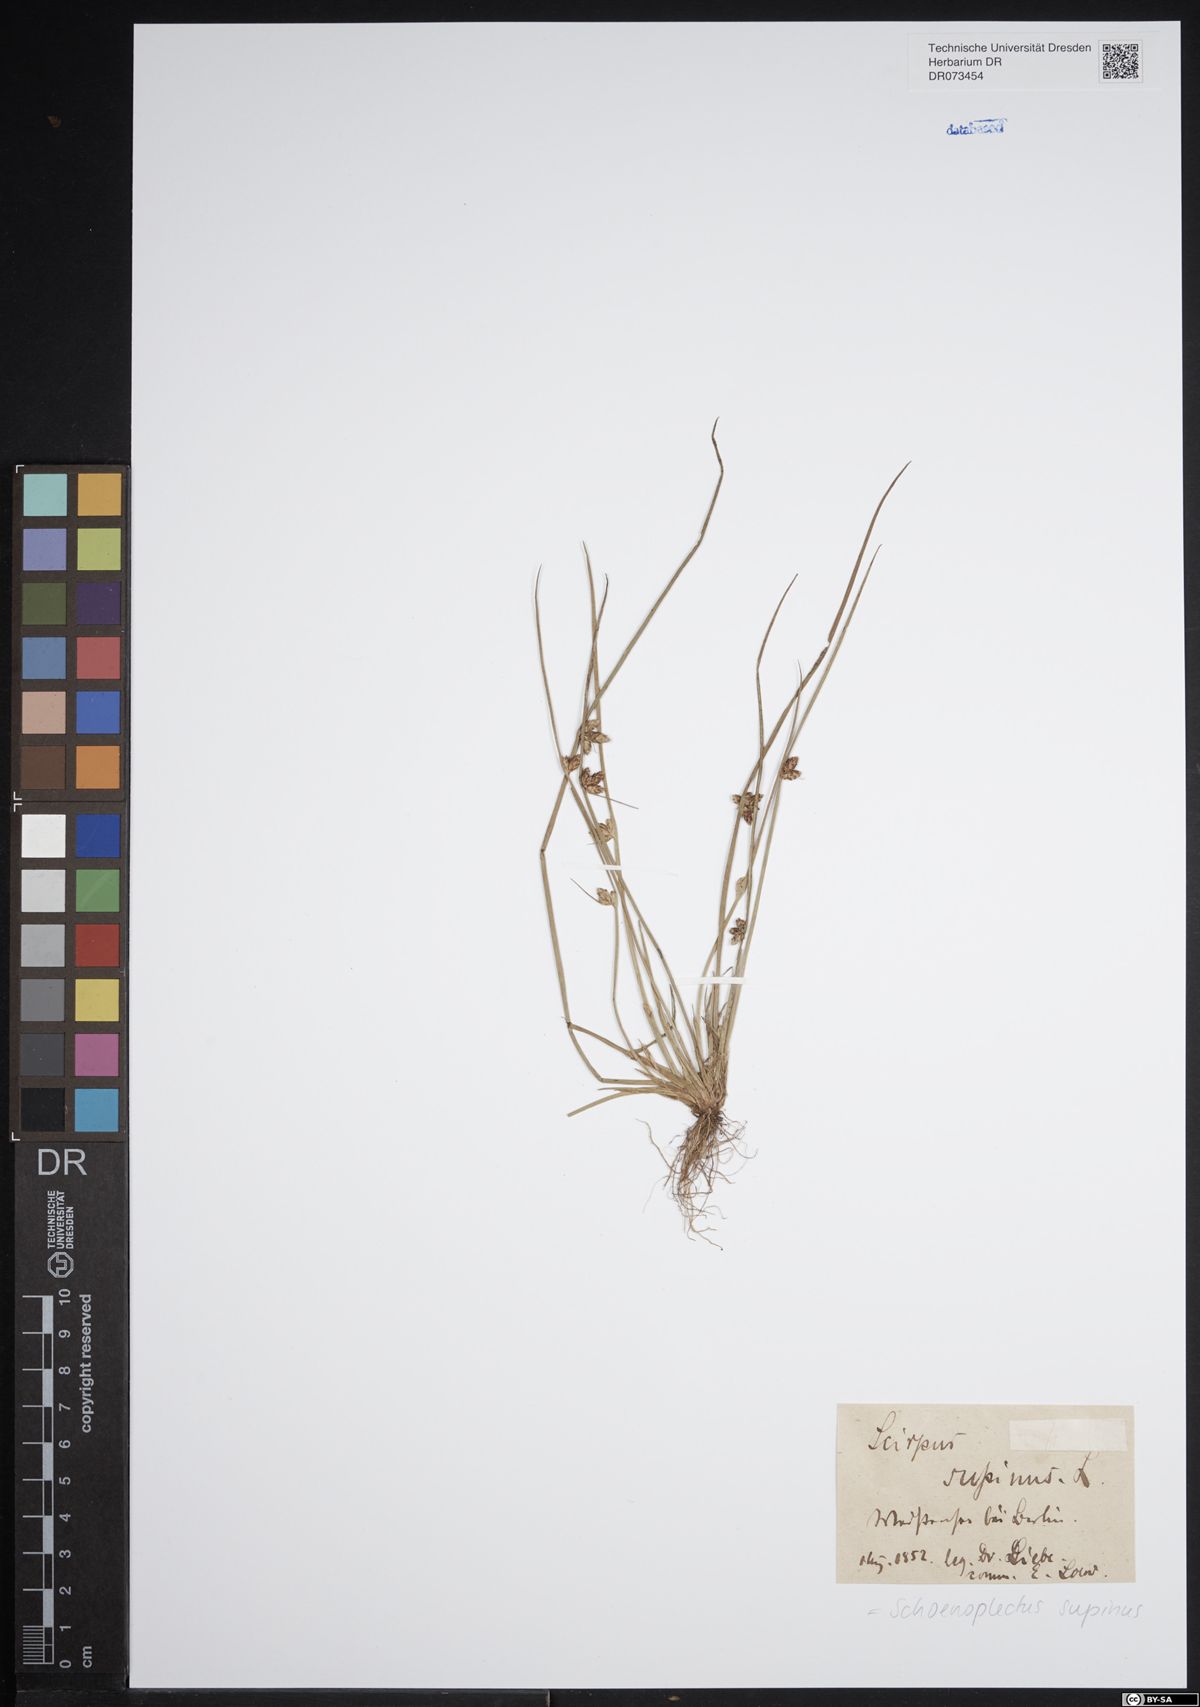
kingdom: Plantae
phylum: Tracheophyta
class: Liliopsida
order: Poales
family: Cyperaceae
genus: Schoenoplectiella
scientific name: Schoenoplectiella supina
